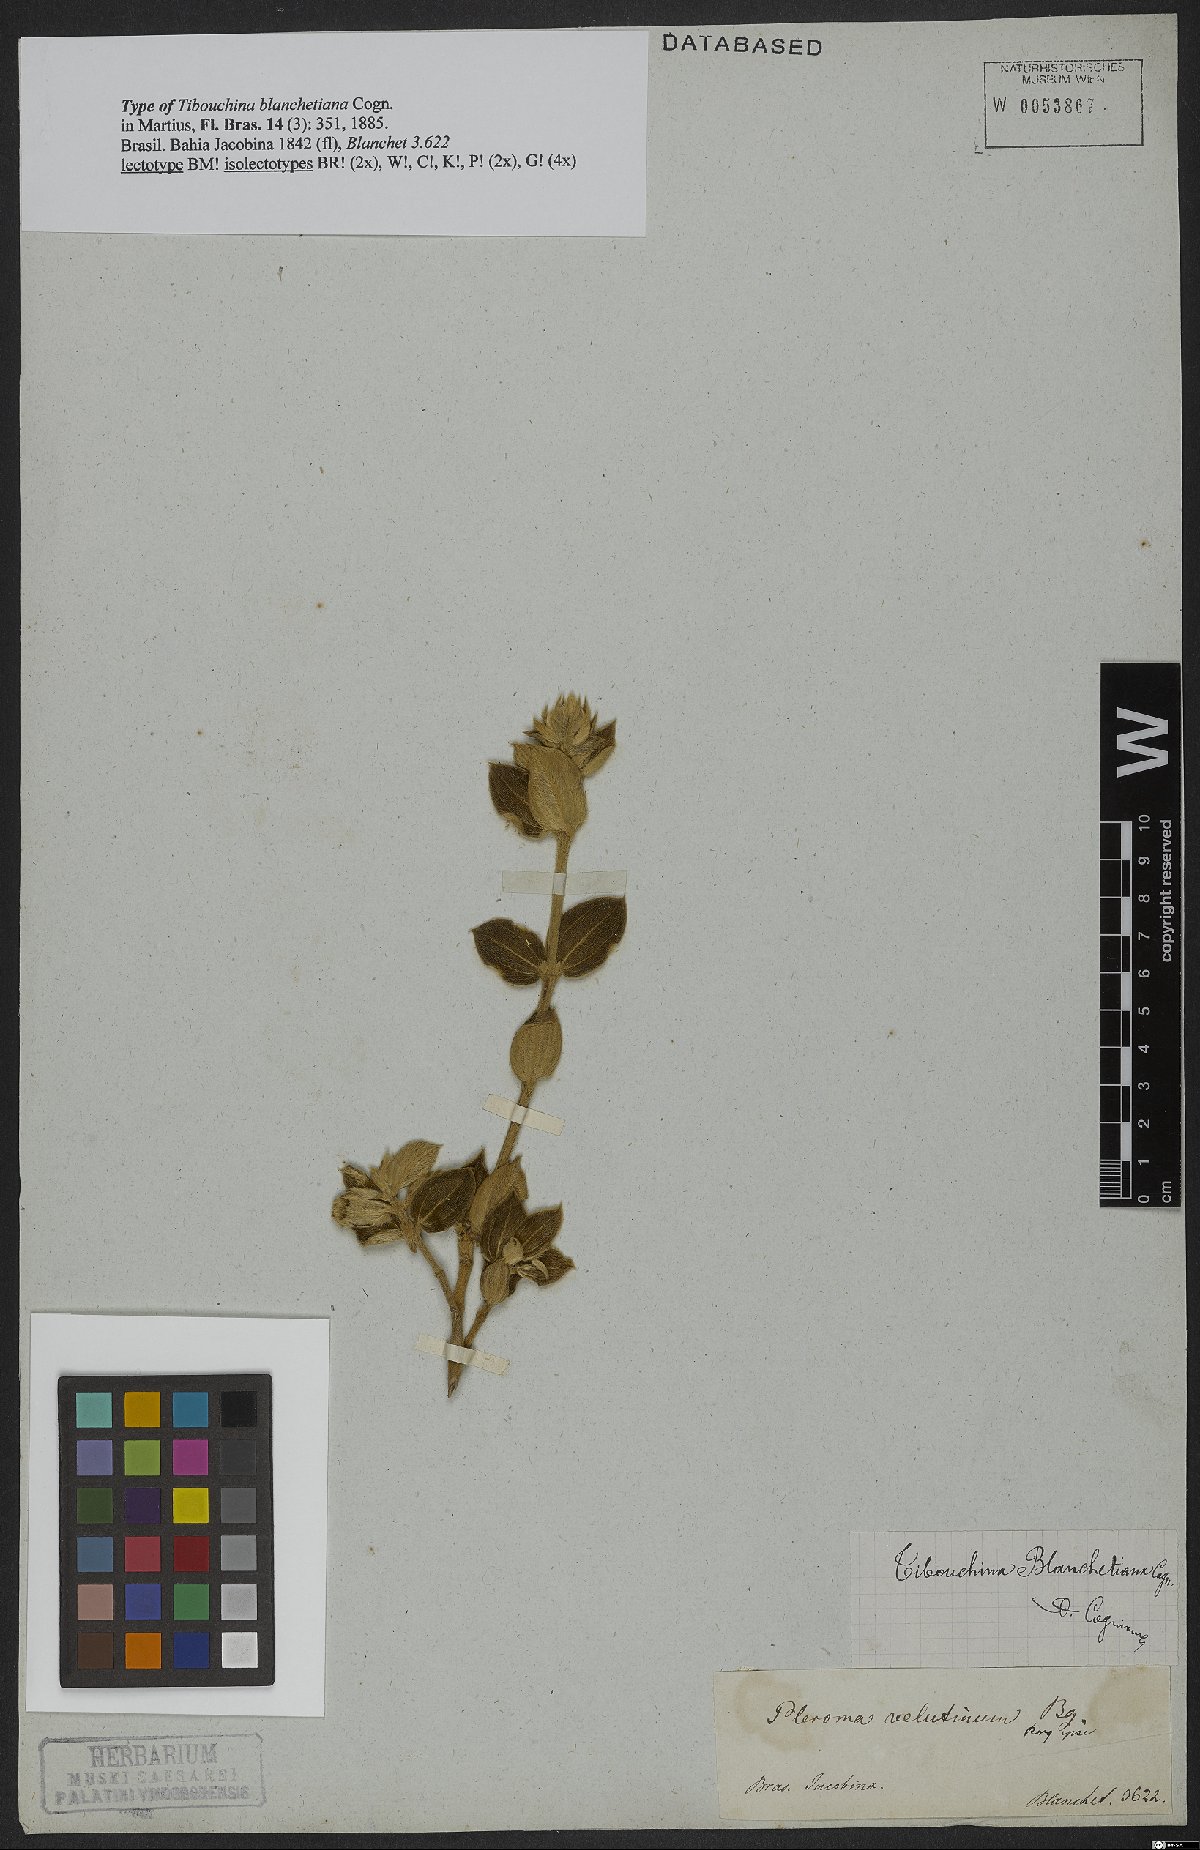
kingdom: Plantae
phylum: Tracheophyta
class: Magnoliopsida
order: Myrtales
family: Melastomataceae
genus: Pleroma
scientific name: Pleroma blanchetianum
